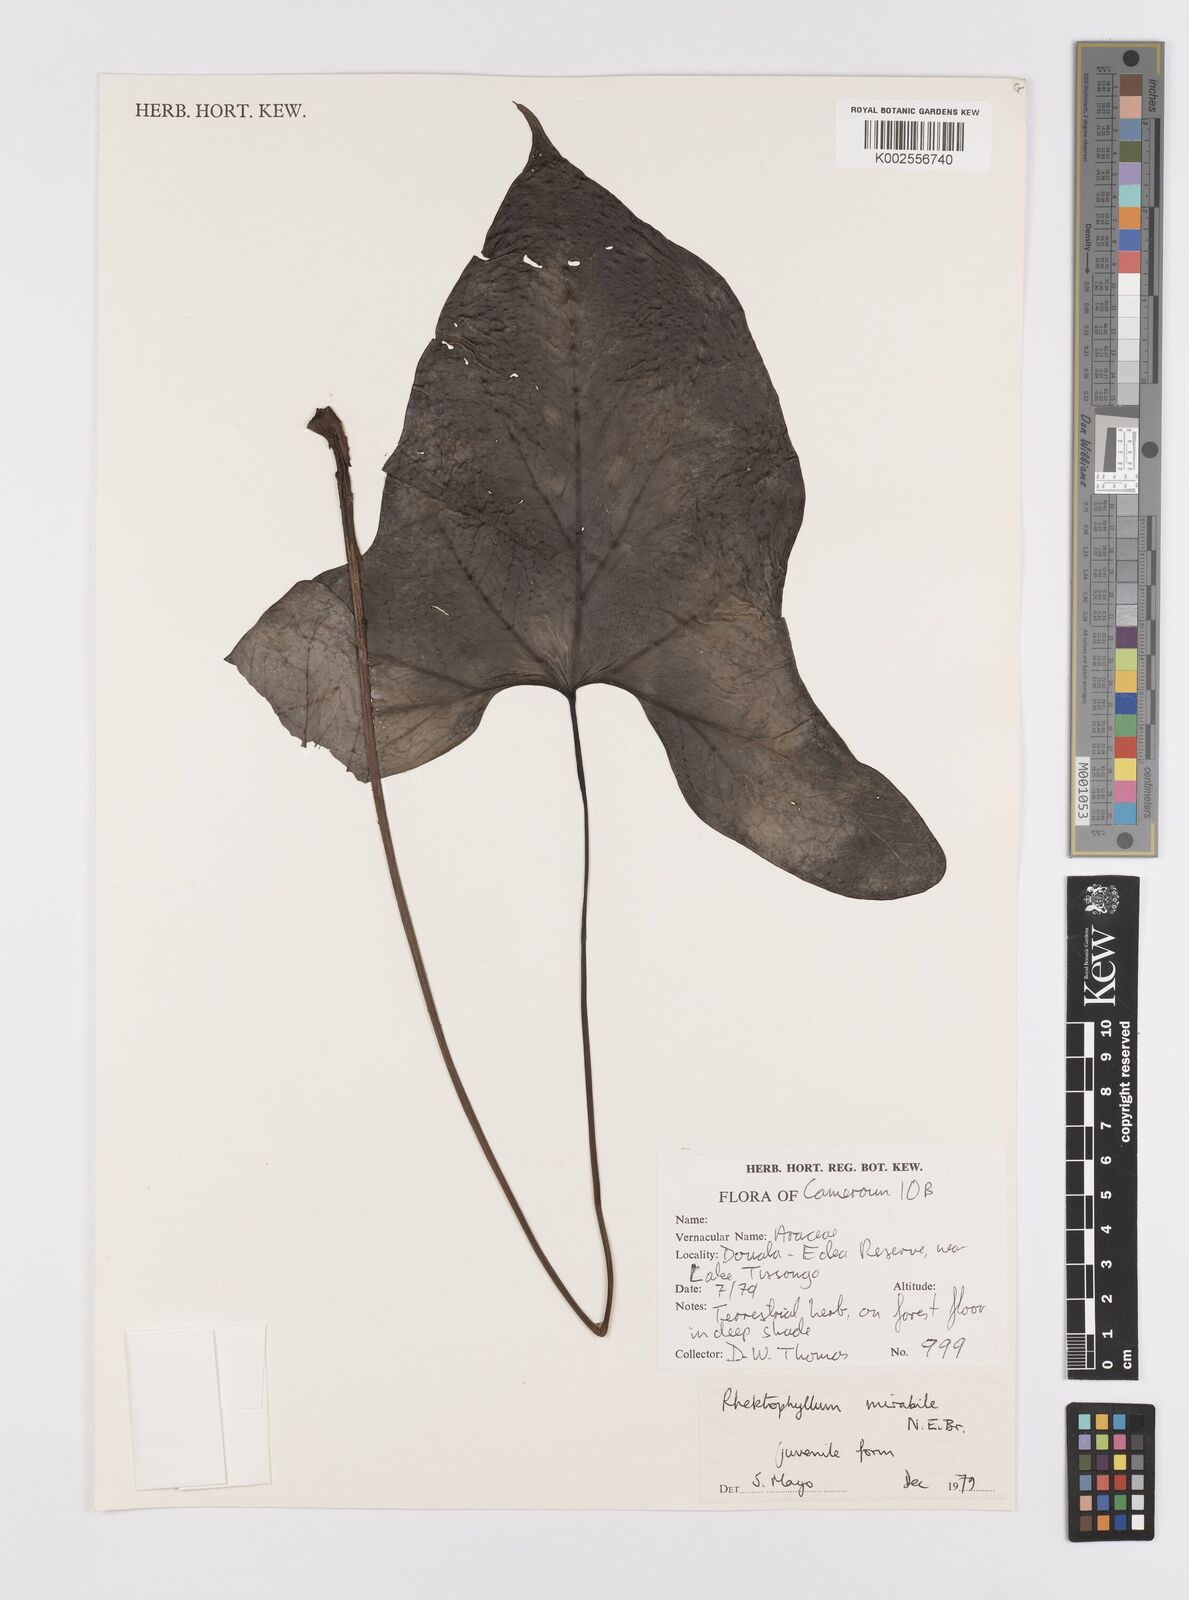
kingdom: Plantae
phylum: Tracheophyta
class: Liliopsida
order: Alismatales
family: Araceae
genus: Cercestis
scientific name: Cercestis mirabilis
